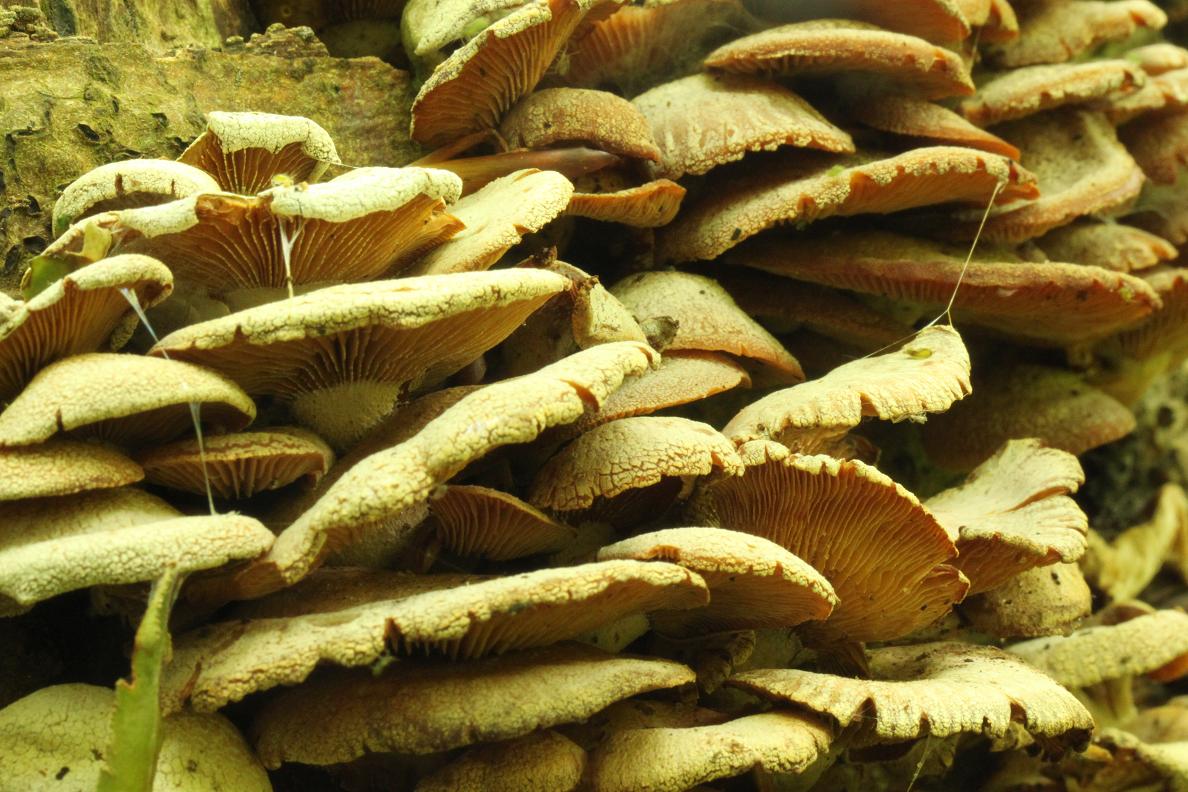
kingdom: Fungi
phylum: Basidiomycota
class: Agaricomycetes
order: Agaricales
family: Mycenaceae
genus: Panellus
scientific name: Panellus stipticus
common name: kliddet epaulethat
